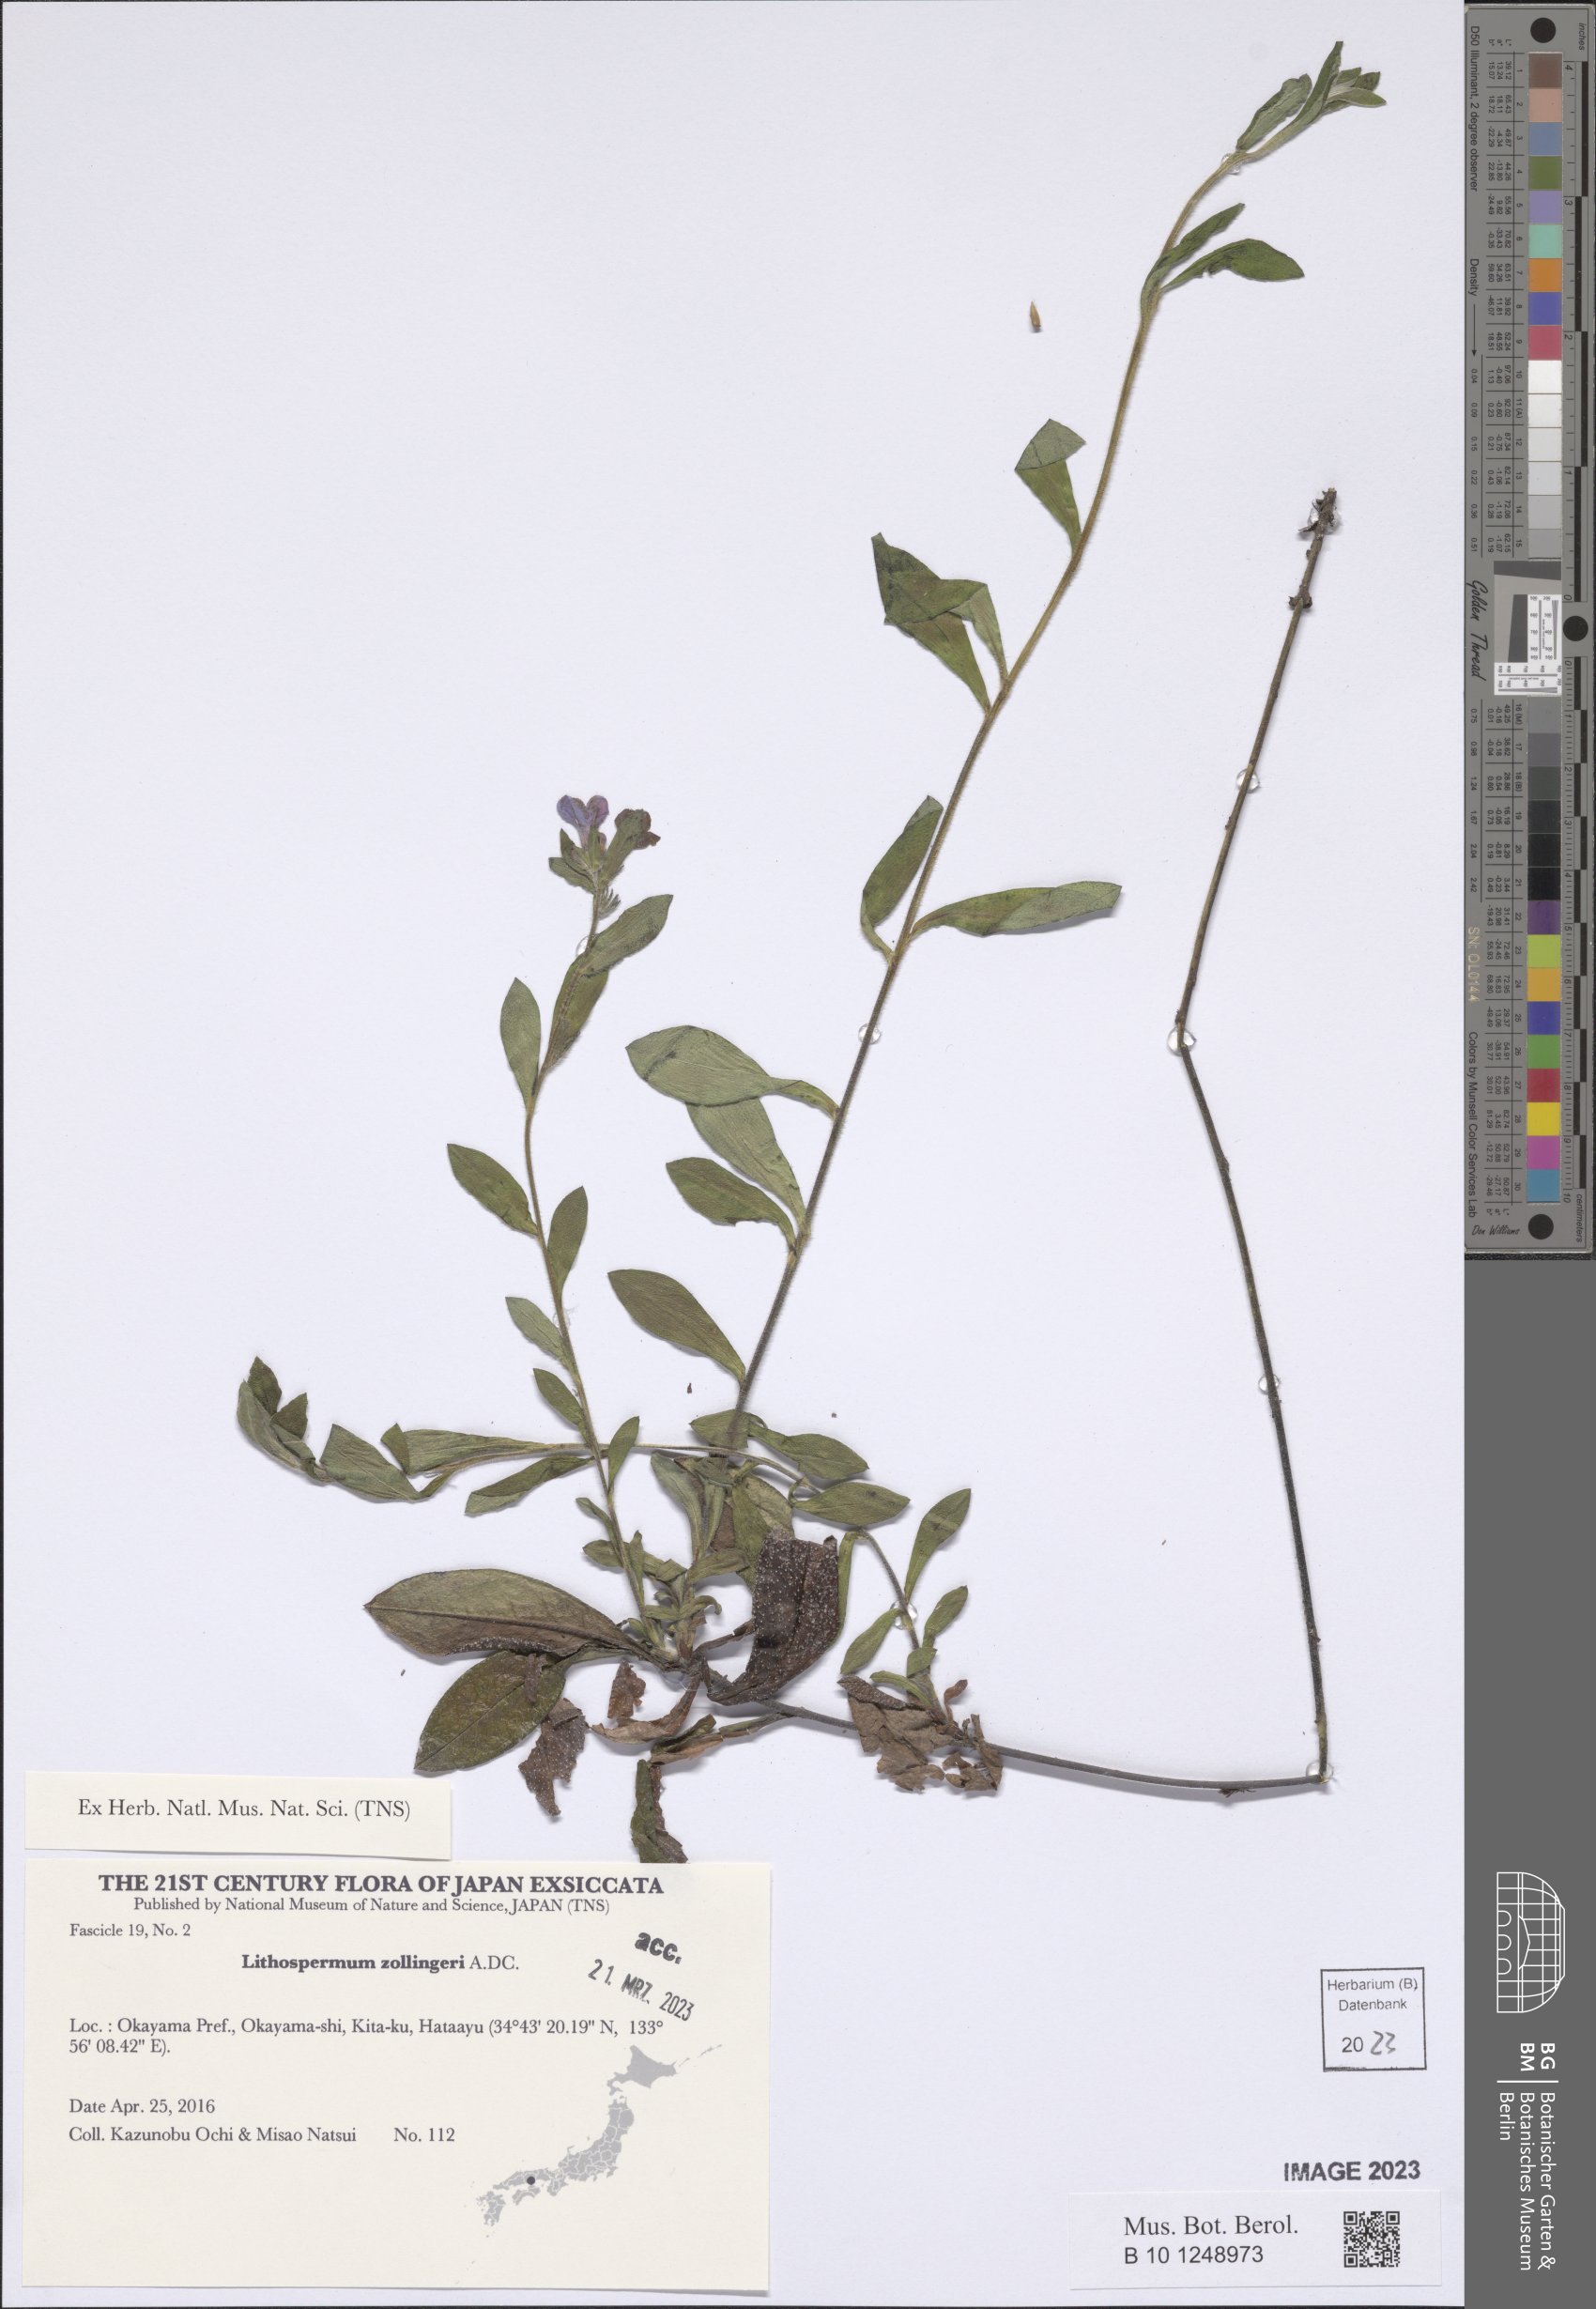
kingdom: Plantae
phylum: Tracheophyta
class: Magnoliopsida
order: Boraginales
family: Boraginaceae
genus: Aegonychon
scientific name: Aegonychon zollingeri
